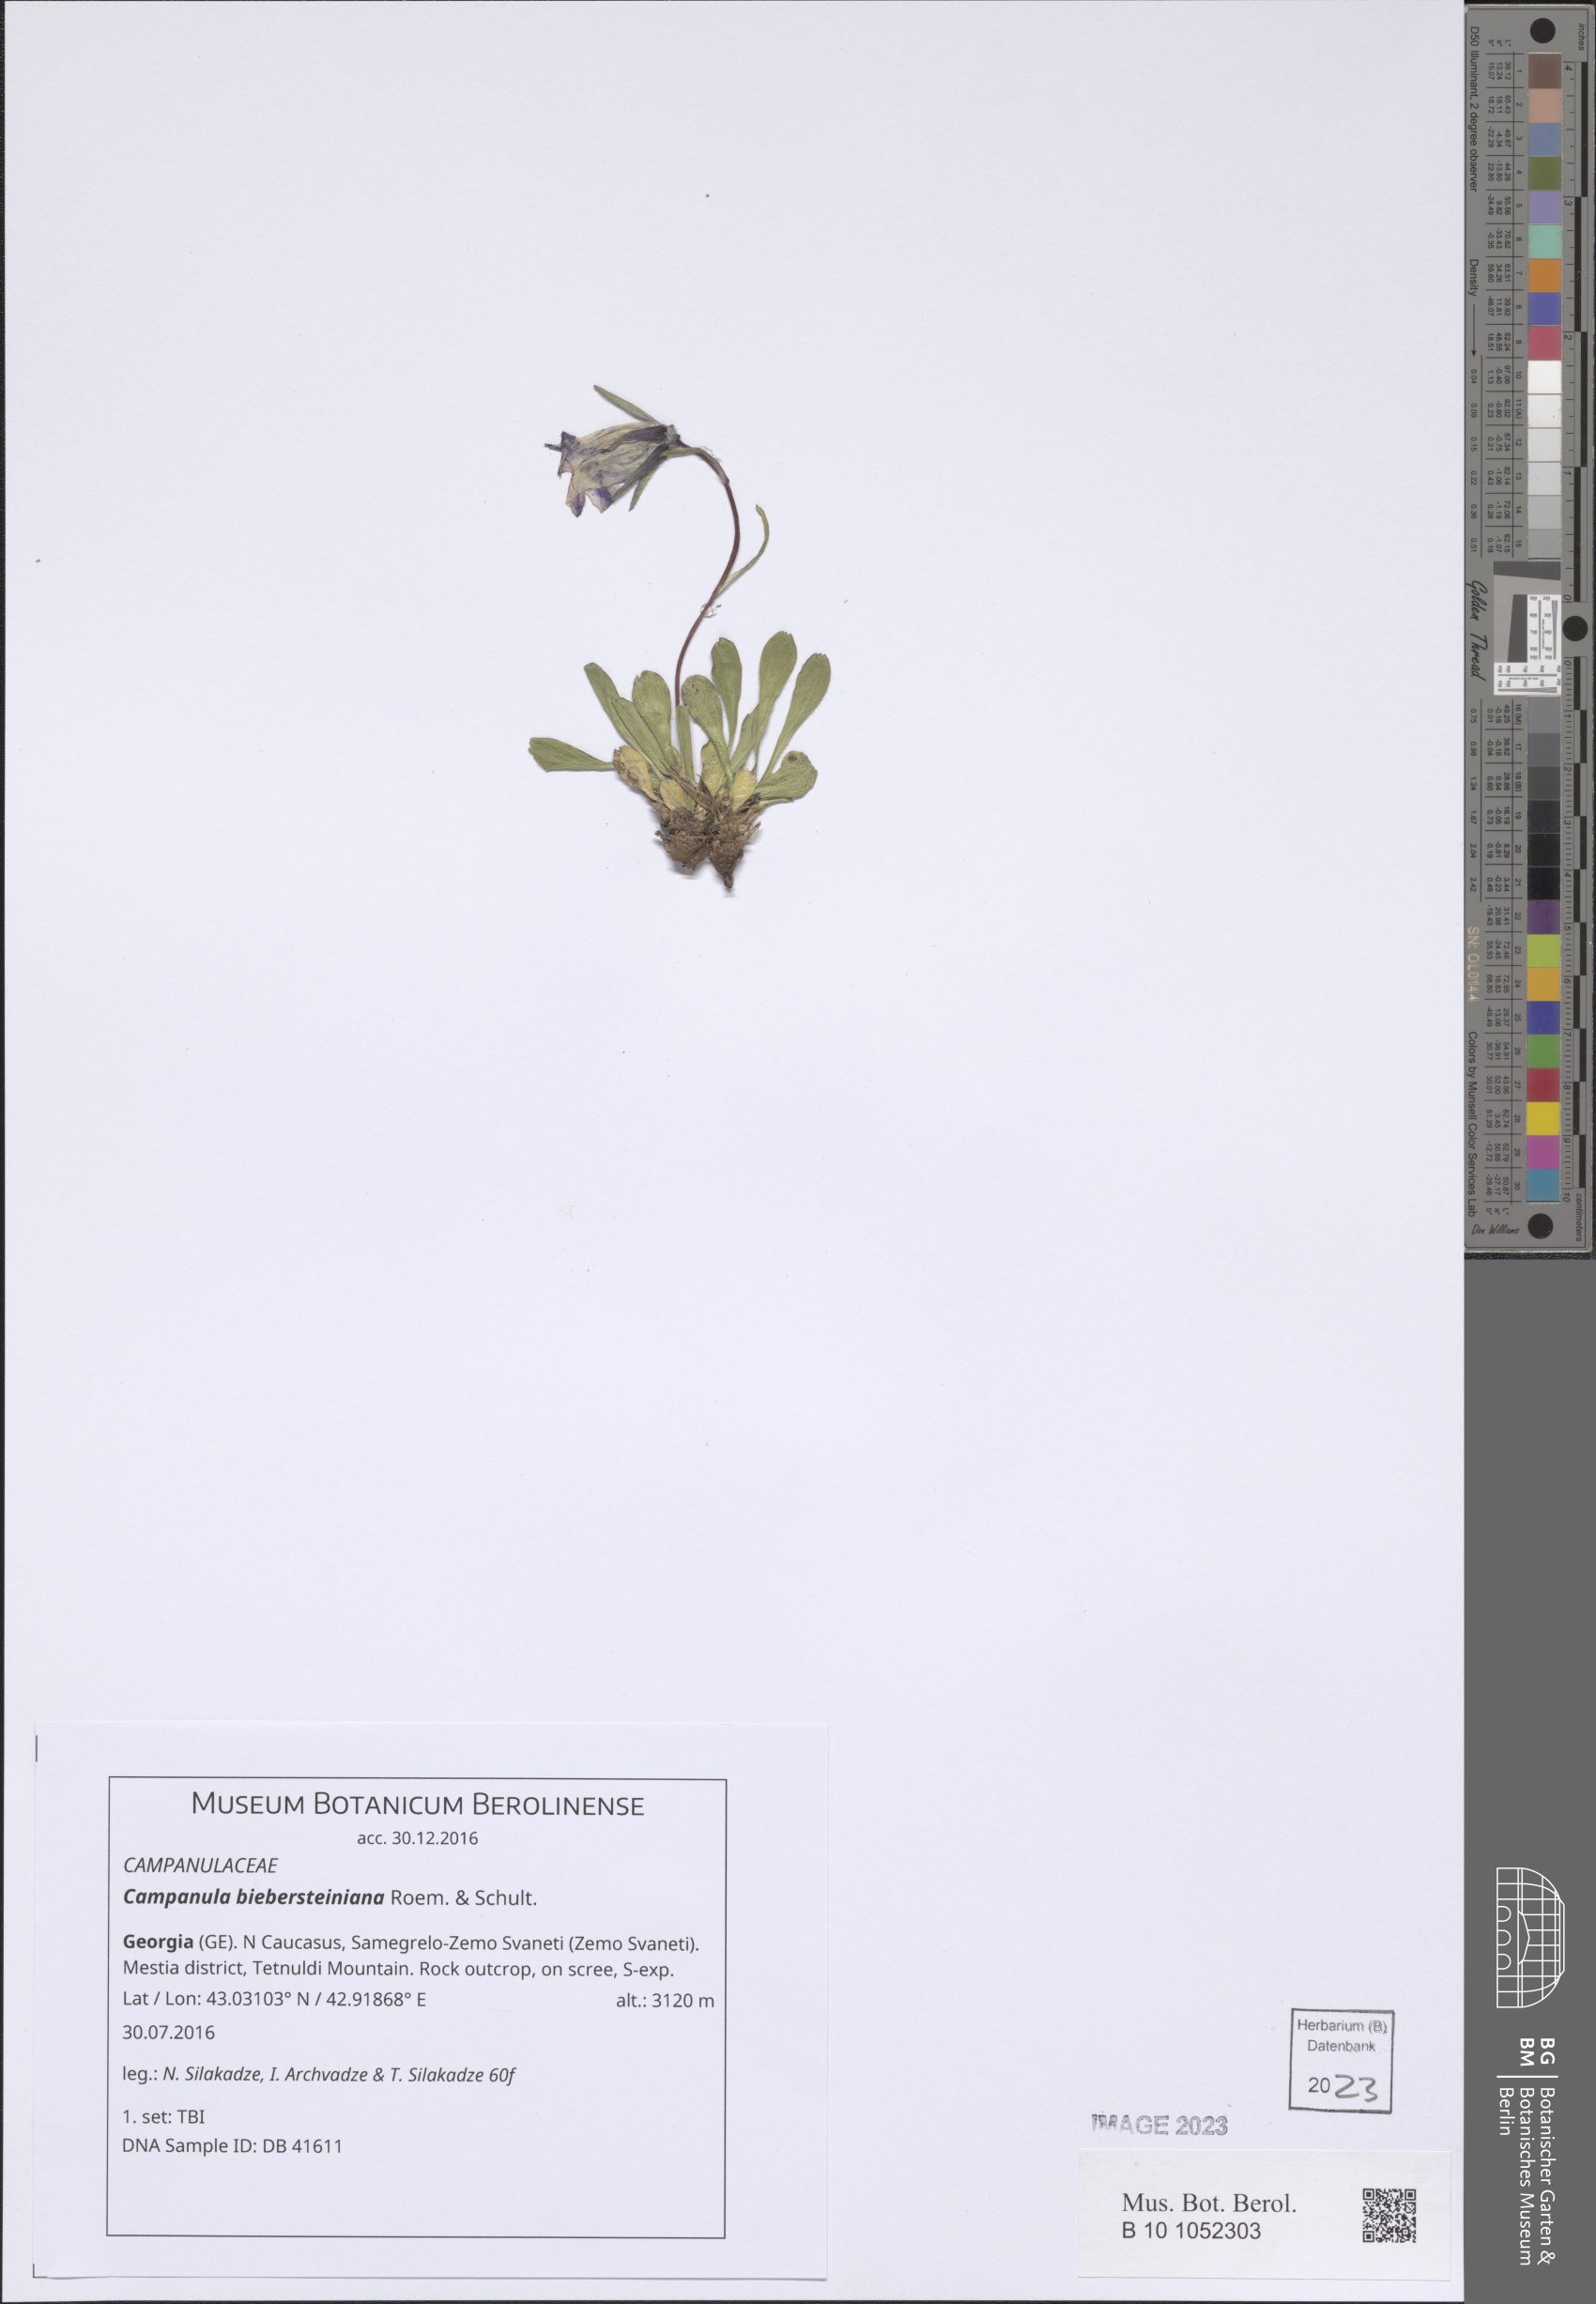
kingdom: Plantae
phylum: Tracheophyta
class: Magnoliopsida
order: Asterales
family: Campanulaceae
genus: Campanula
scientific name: Campanula tridentata
